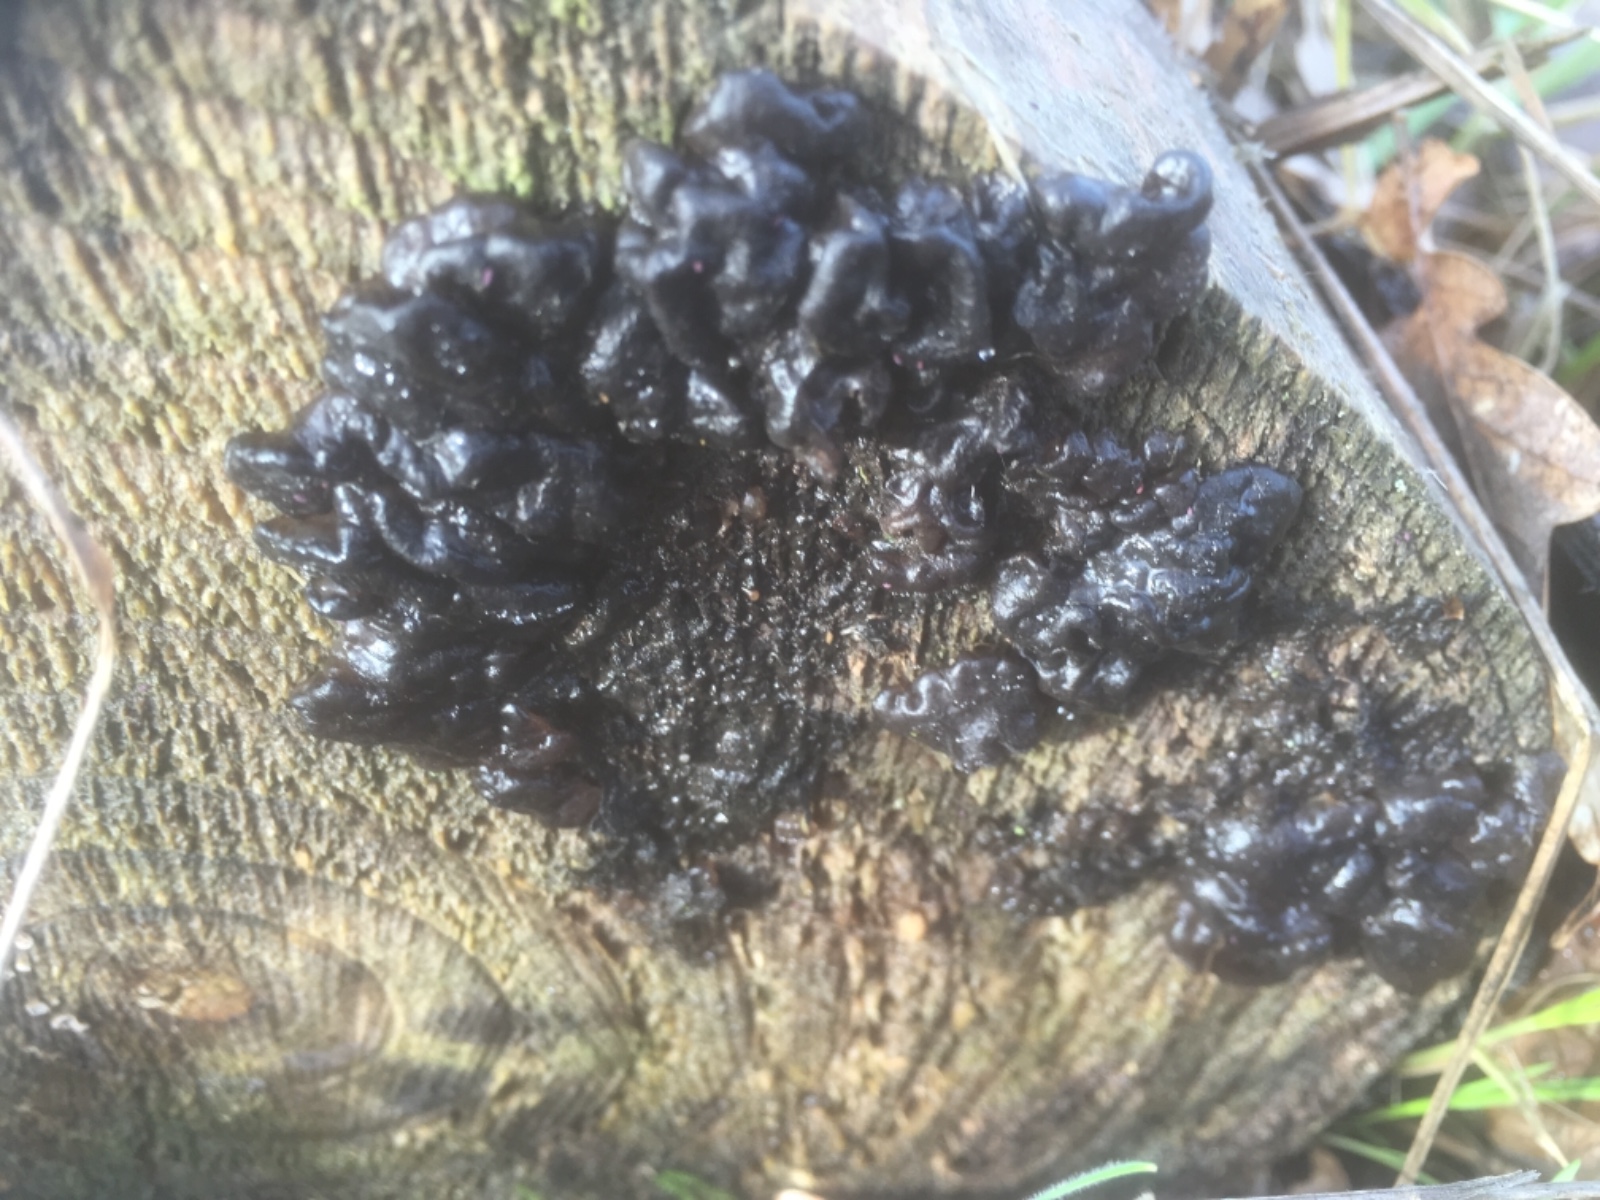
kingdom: Fungi
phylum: Basidiomycota
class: Agaricomycetes
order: Auriculariales
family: Auriculariaceae
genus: Exidia
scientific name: Exidia nigricans
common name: almindelig bævretop
